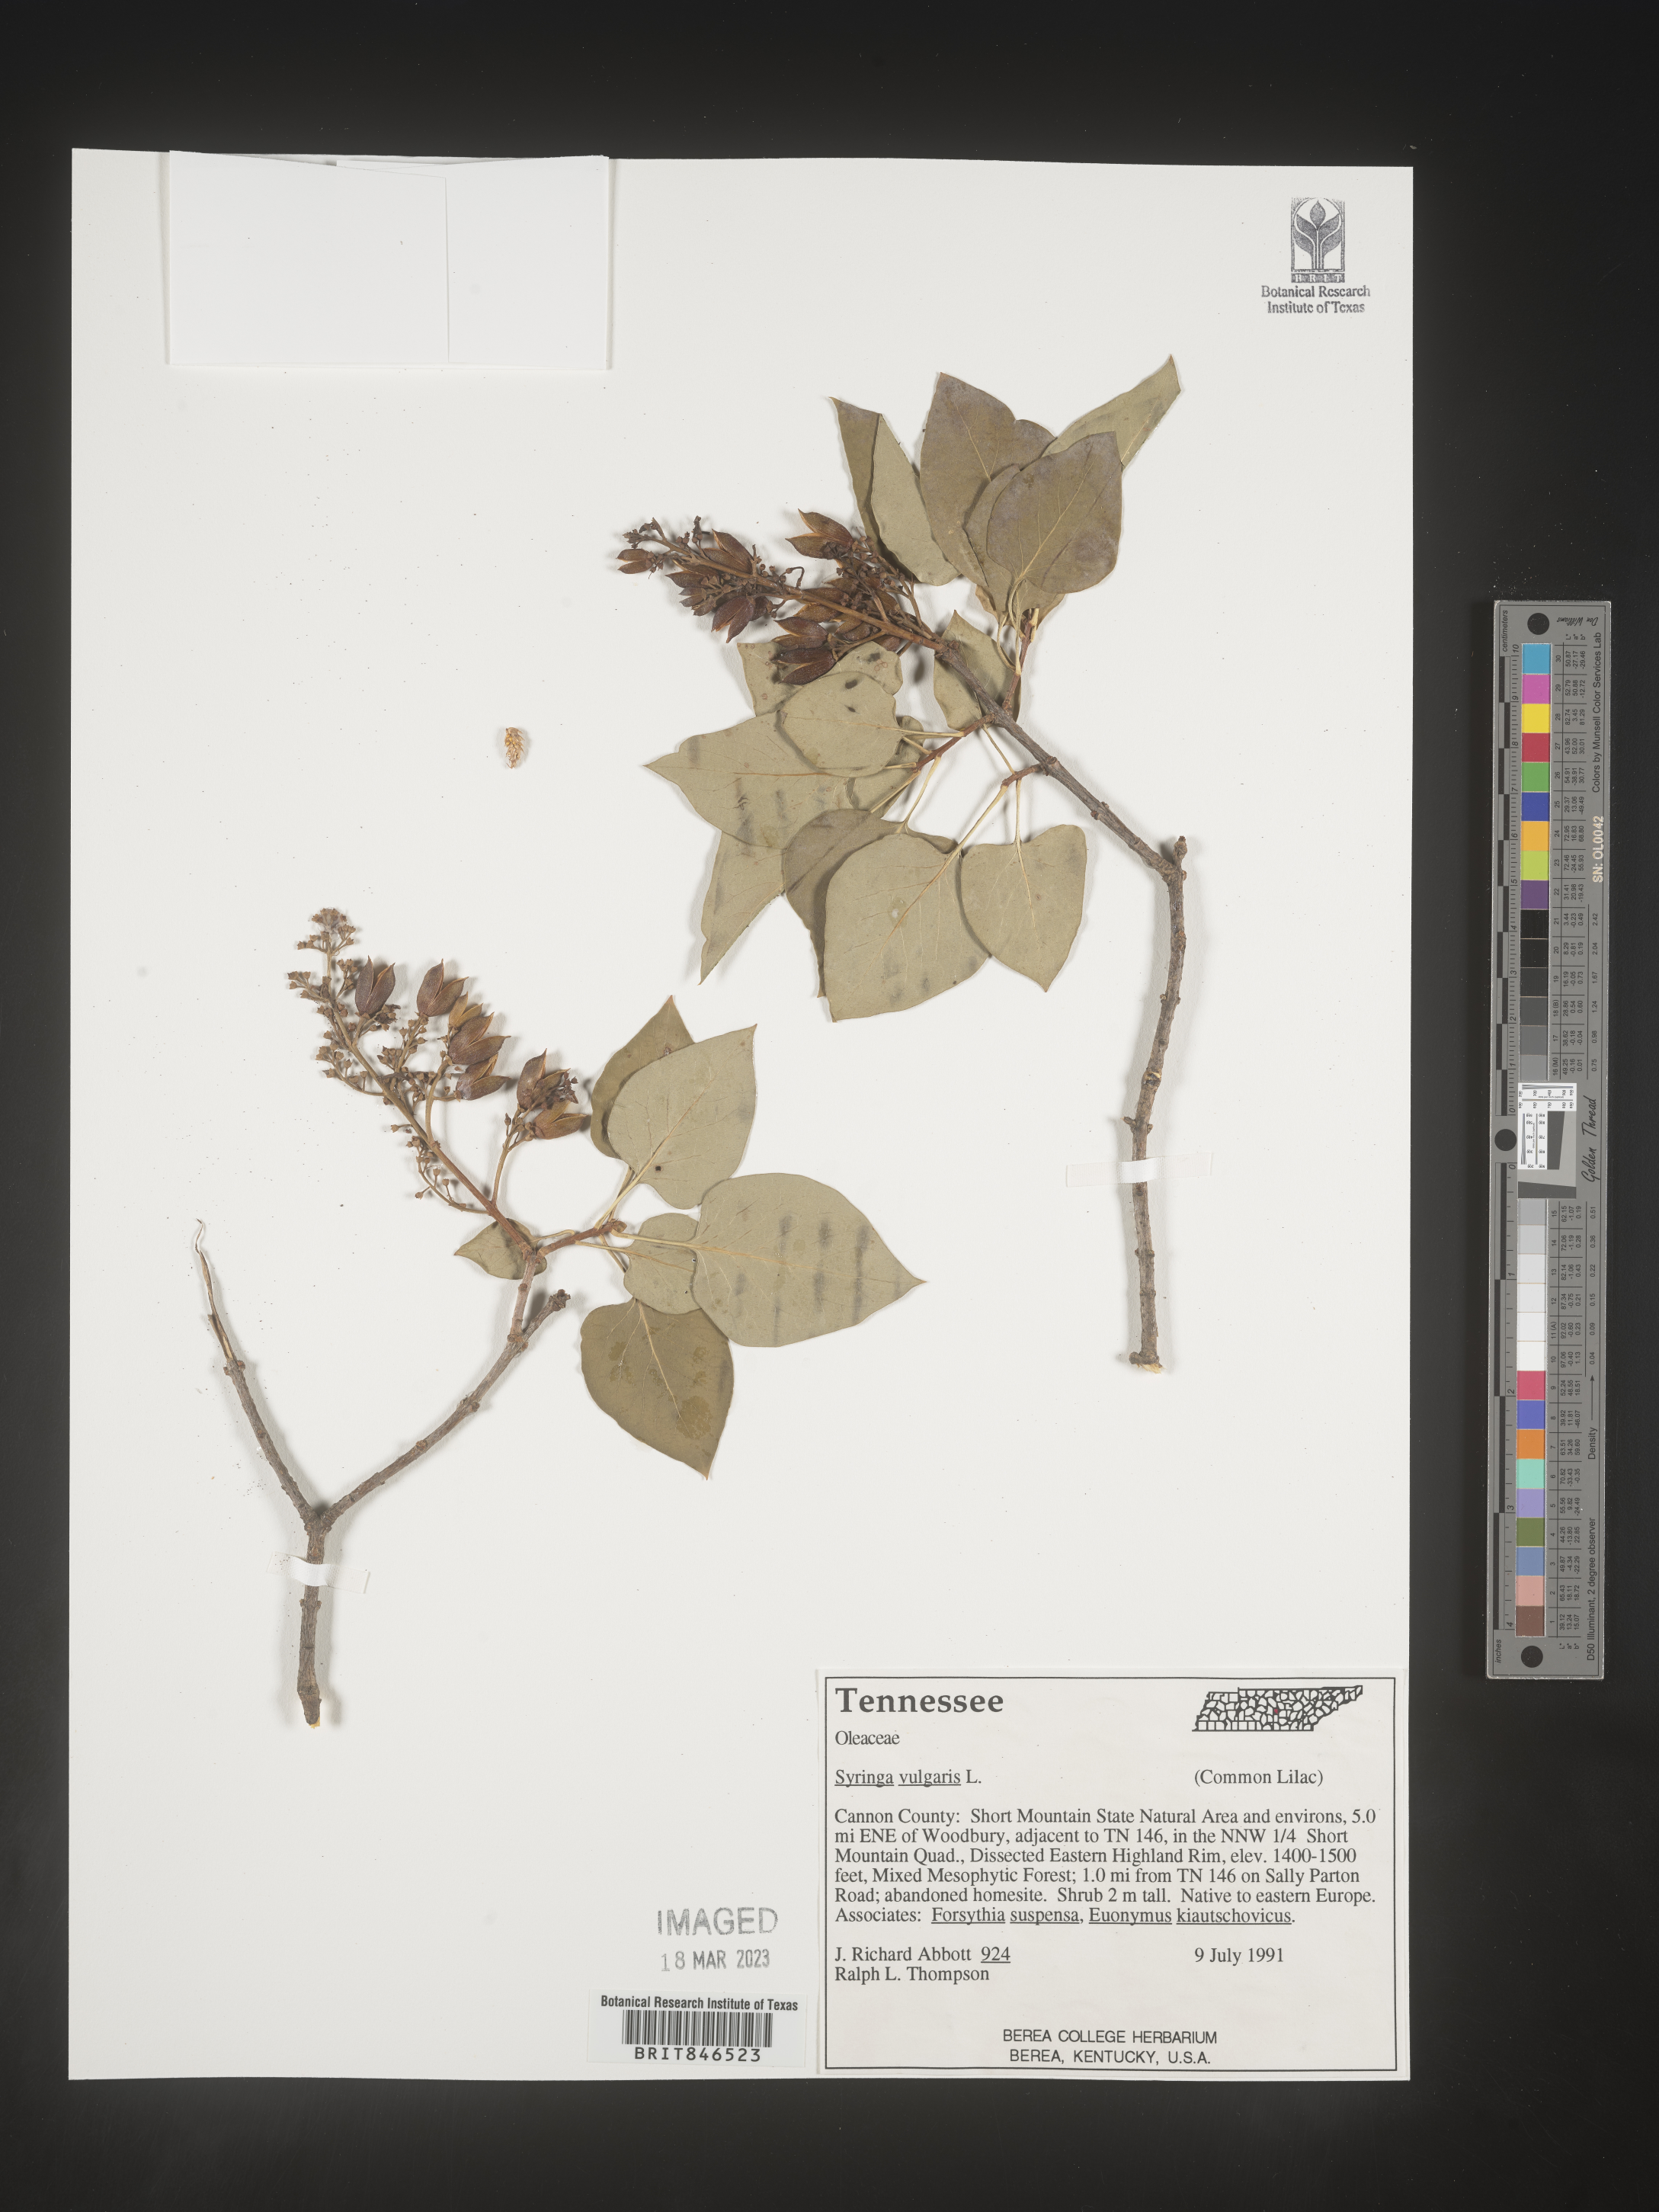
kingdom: Plantae
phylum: Tracheophyta
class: Magnoliopsida
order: Lamiales
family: Oleaceae
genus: Syringa
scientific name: Syringa
